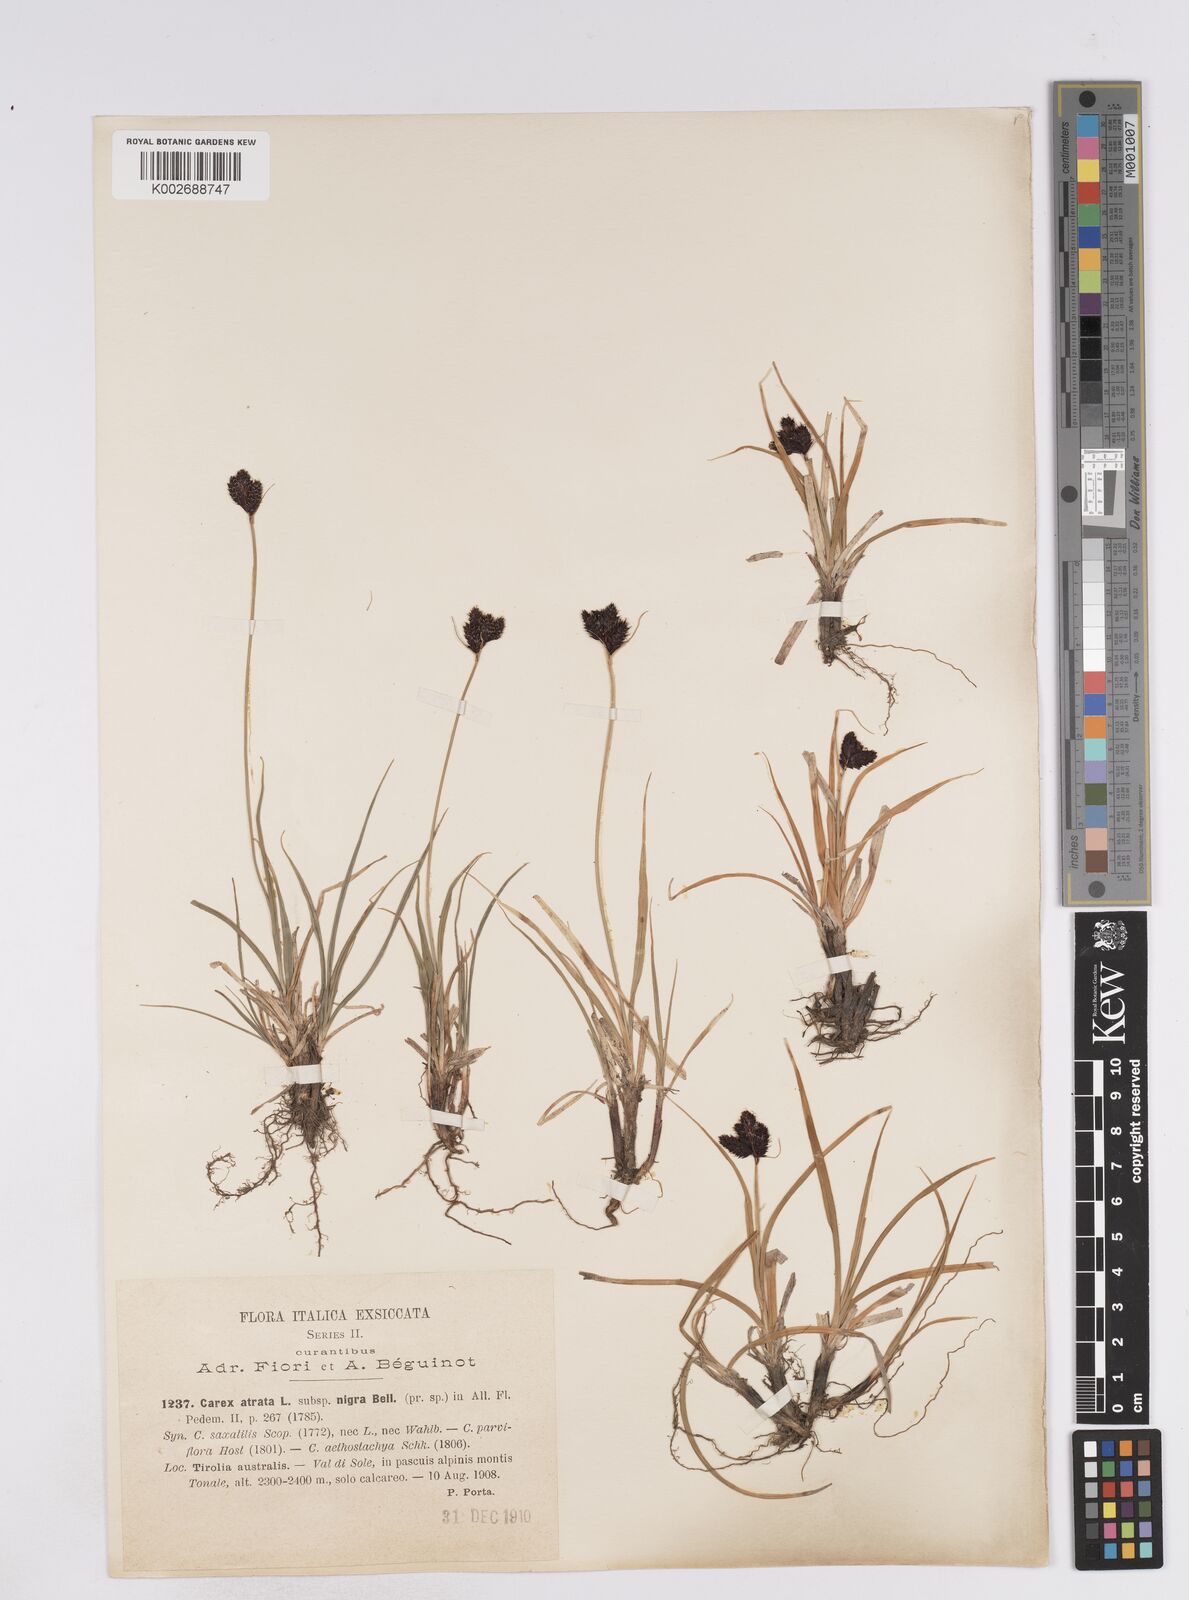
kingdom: Plantae
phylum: Tracheophyta
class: Liliopsida
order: Poales
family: Cyperaceae
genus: Carex
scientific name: Carex parviflora
